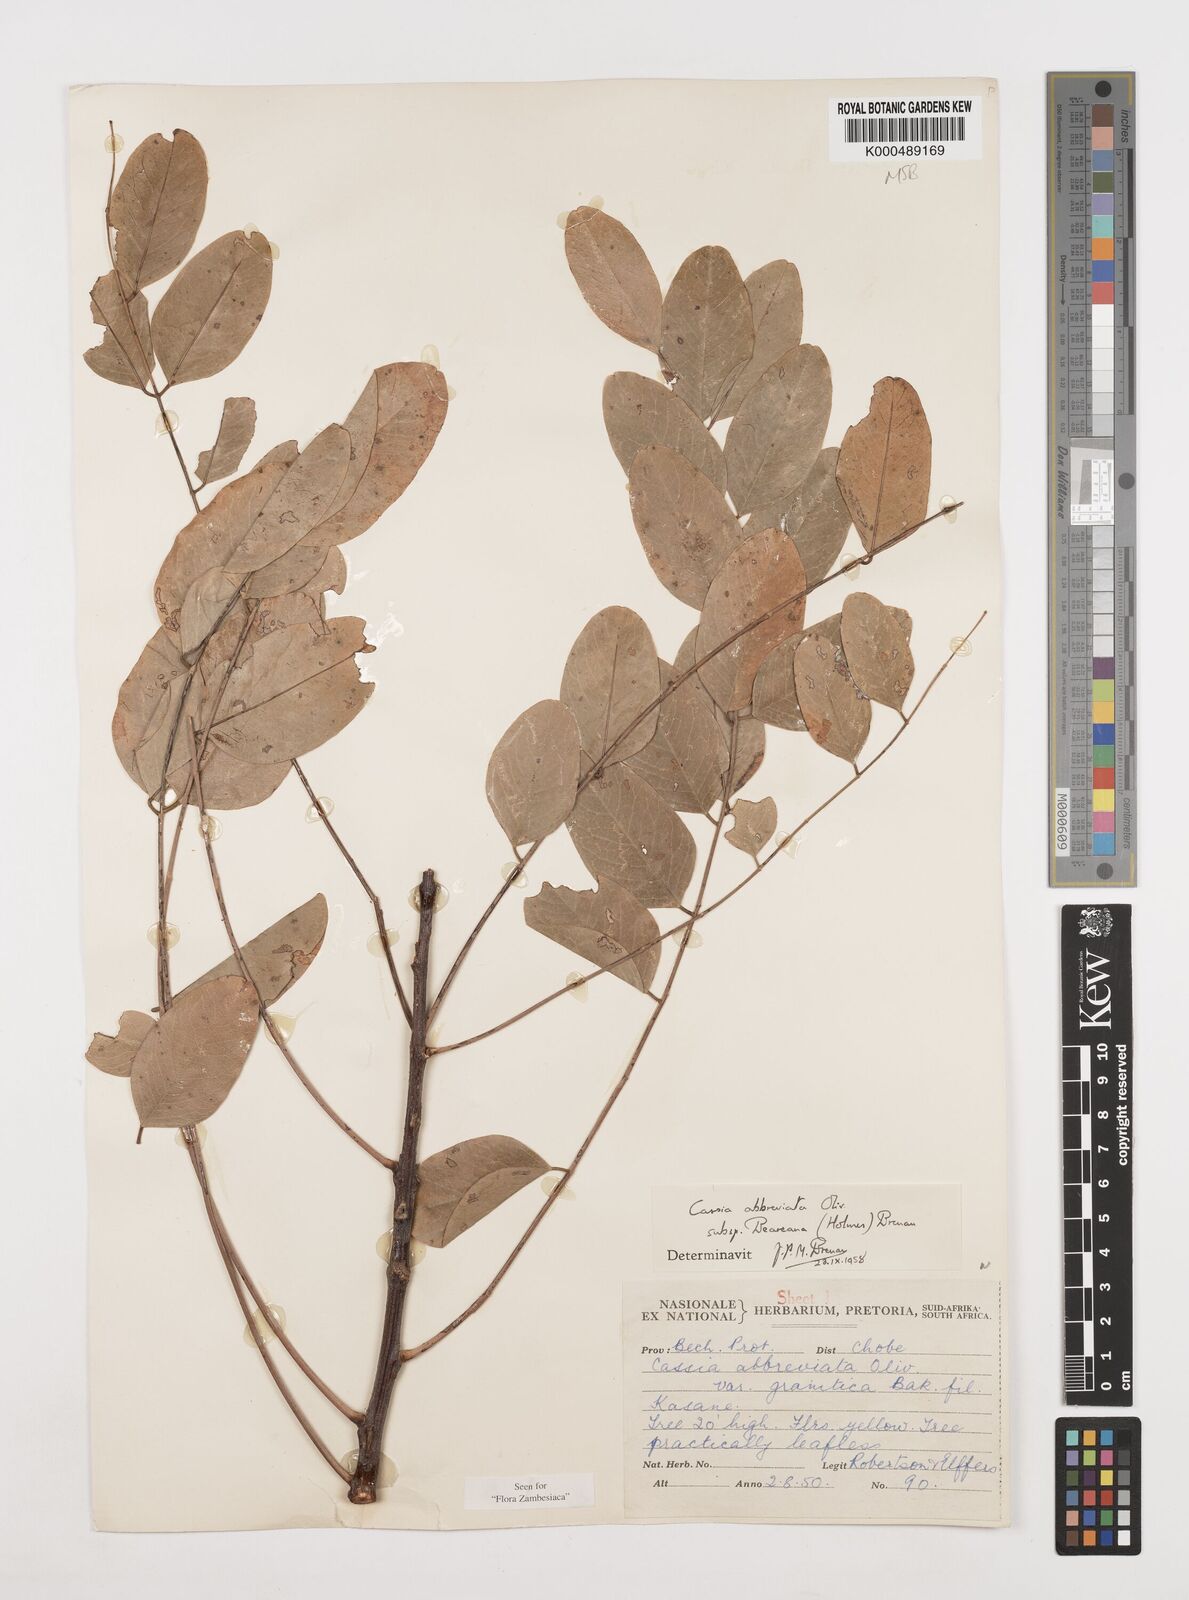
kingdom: Plantae
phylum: Tracheophyta
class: Magnoliopsida
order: Fabales
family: Fabaceae
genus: Cassia
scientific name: Cassia abbreviata
